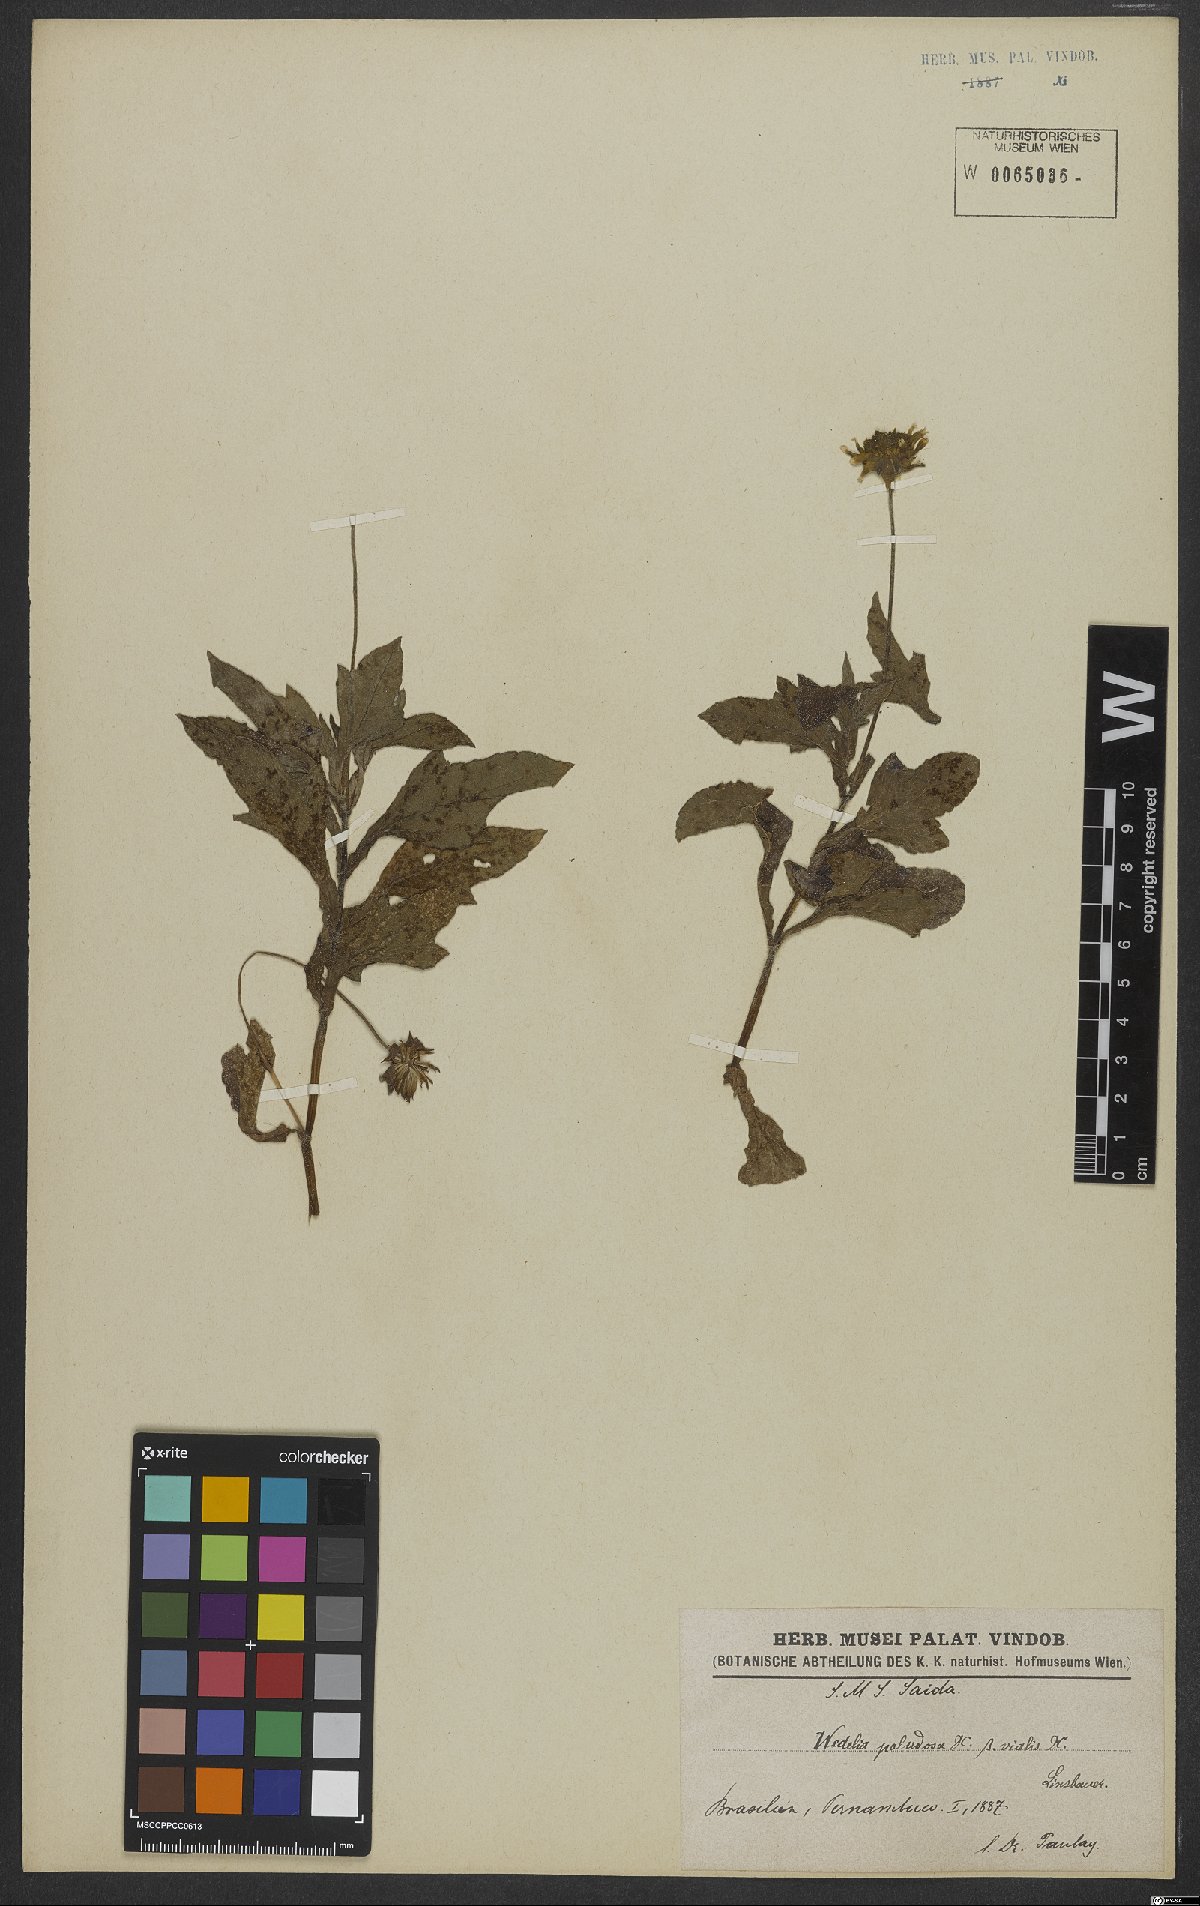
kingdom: Plantae
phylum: Tracheophyta
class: Magnoliopsida
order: Asterales
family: Asteraceae
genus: Sphagneticola
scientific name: Sphagneticola trilobata
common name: Bay biscayne creeping-oxeye
